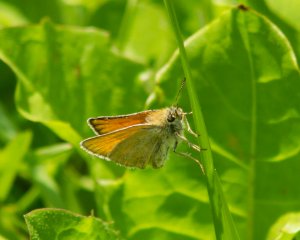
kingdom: Animalia
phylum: Arthropoda
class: Insecta
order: Lepidoptera
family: Hesperiidae
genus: Thymelicus
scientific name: Thymelicus lineola
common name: European Skipper
